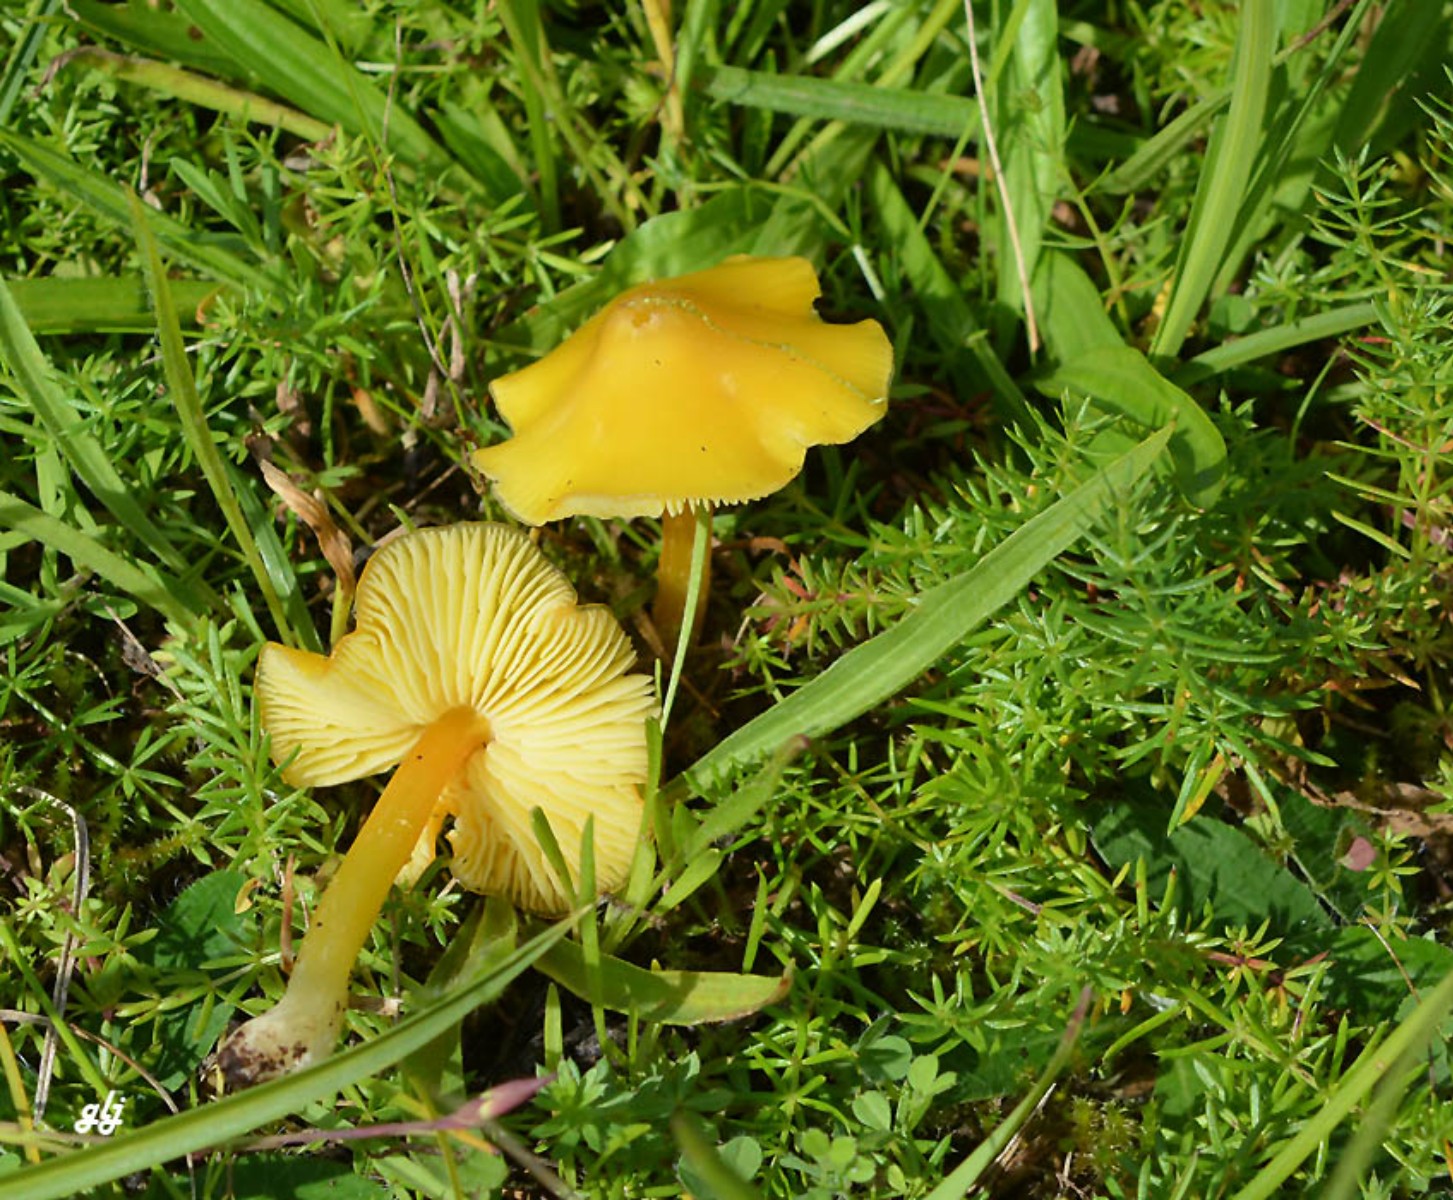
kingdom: Fungi
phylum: Basidiomycota
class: Agaricomycetes
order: Agaricales
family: Hygrophoraceae
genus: Hygrocybe
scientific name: Hygrocybe
